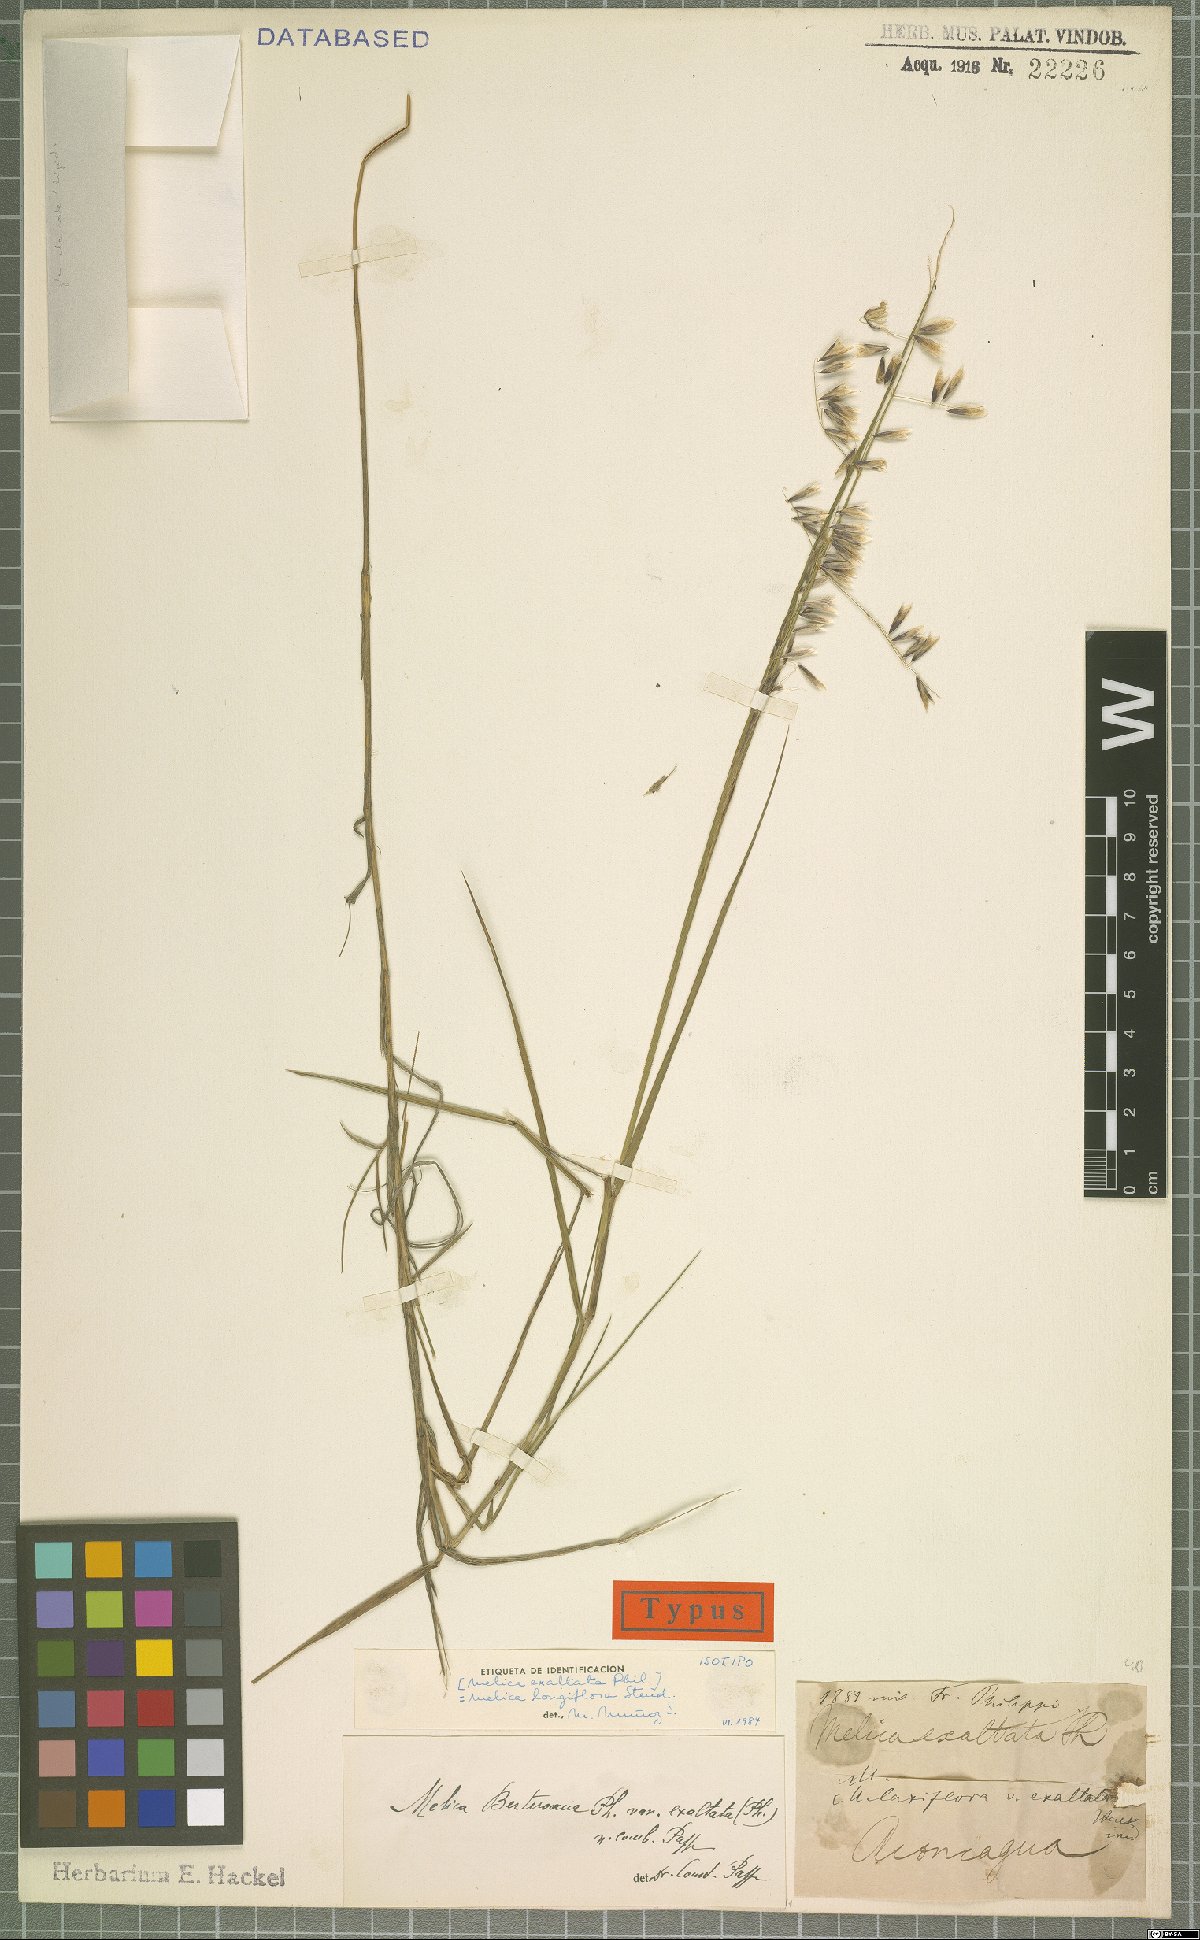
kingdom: Plantae
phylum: Tracheophyta
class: Liliopsida
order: Poales
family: Poaceae
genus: Melica
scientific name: Melica longiflora
